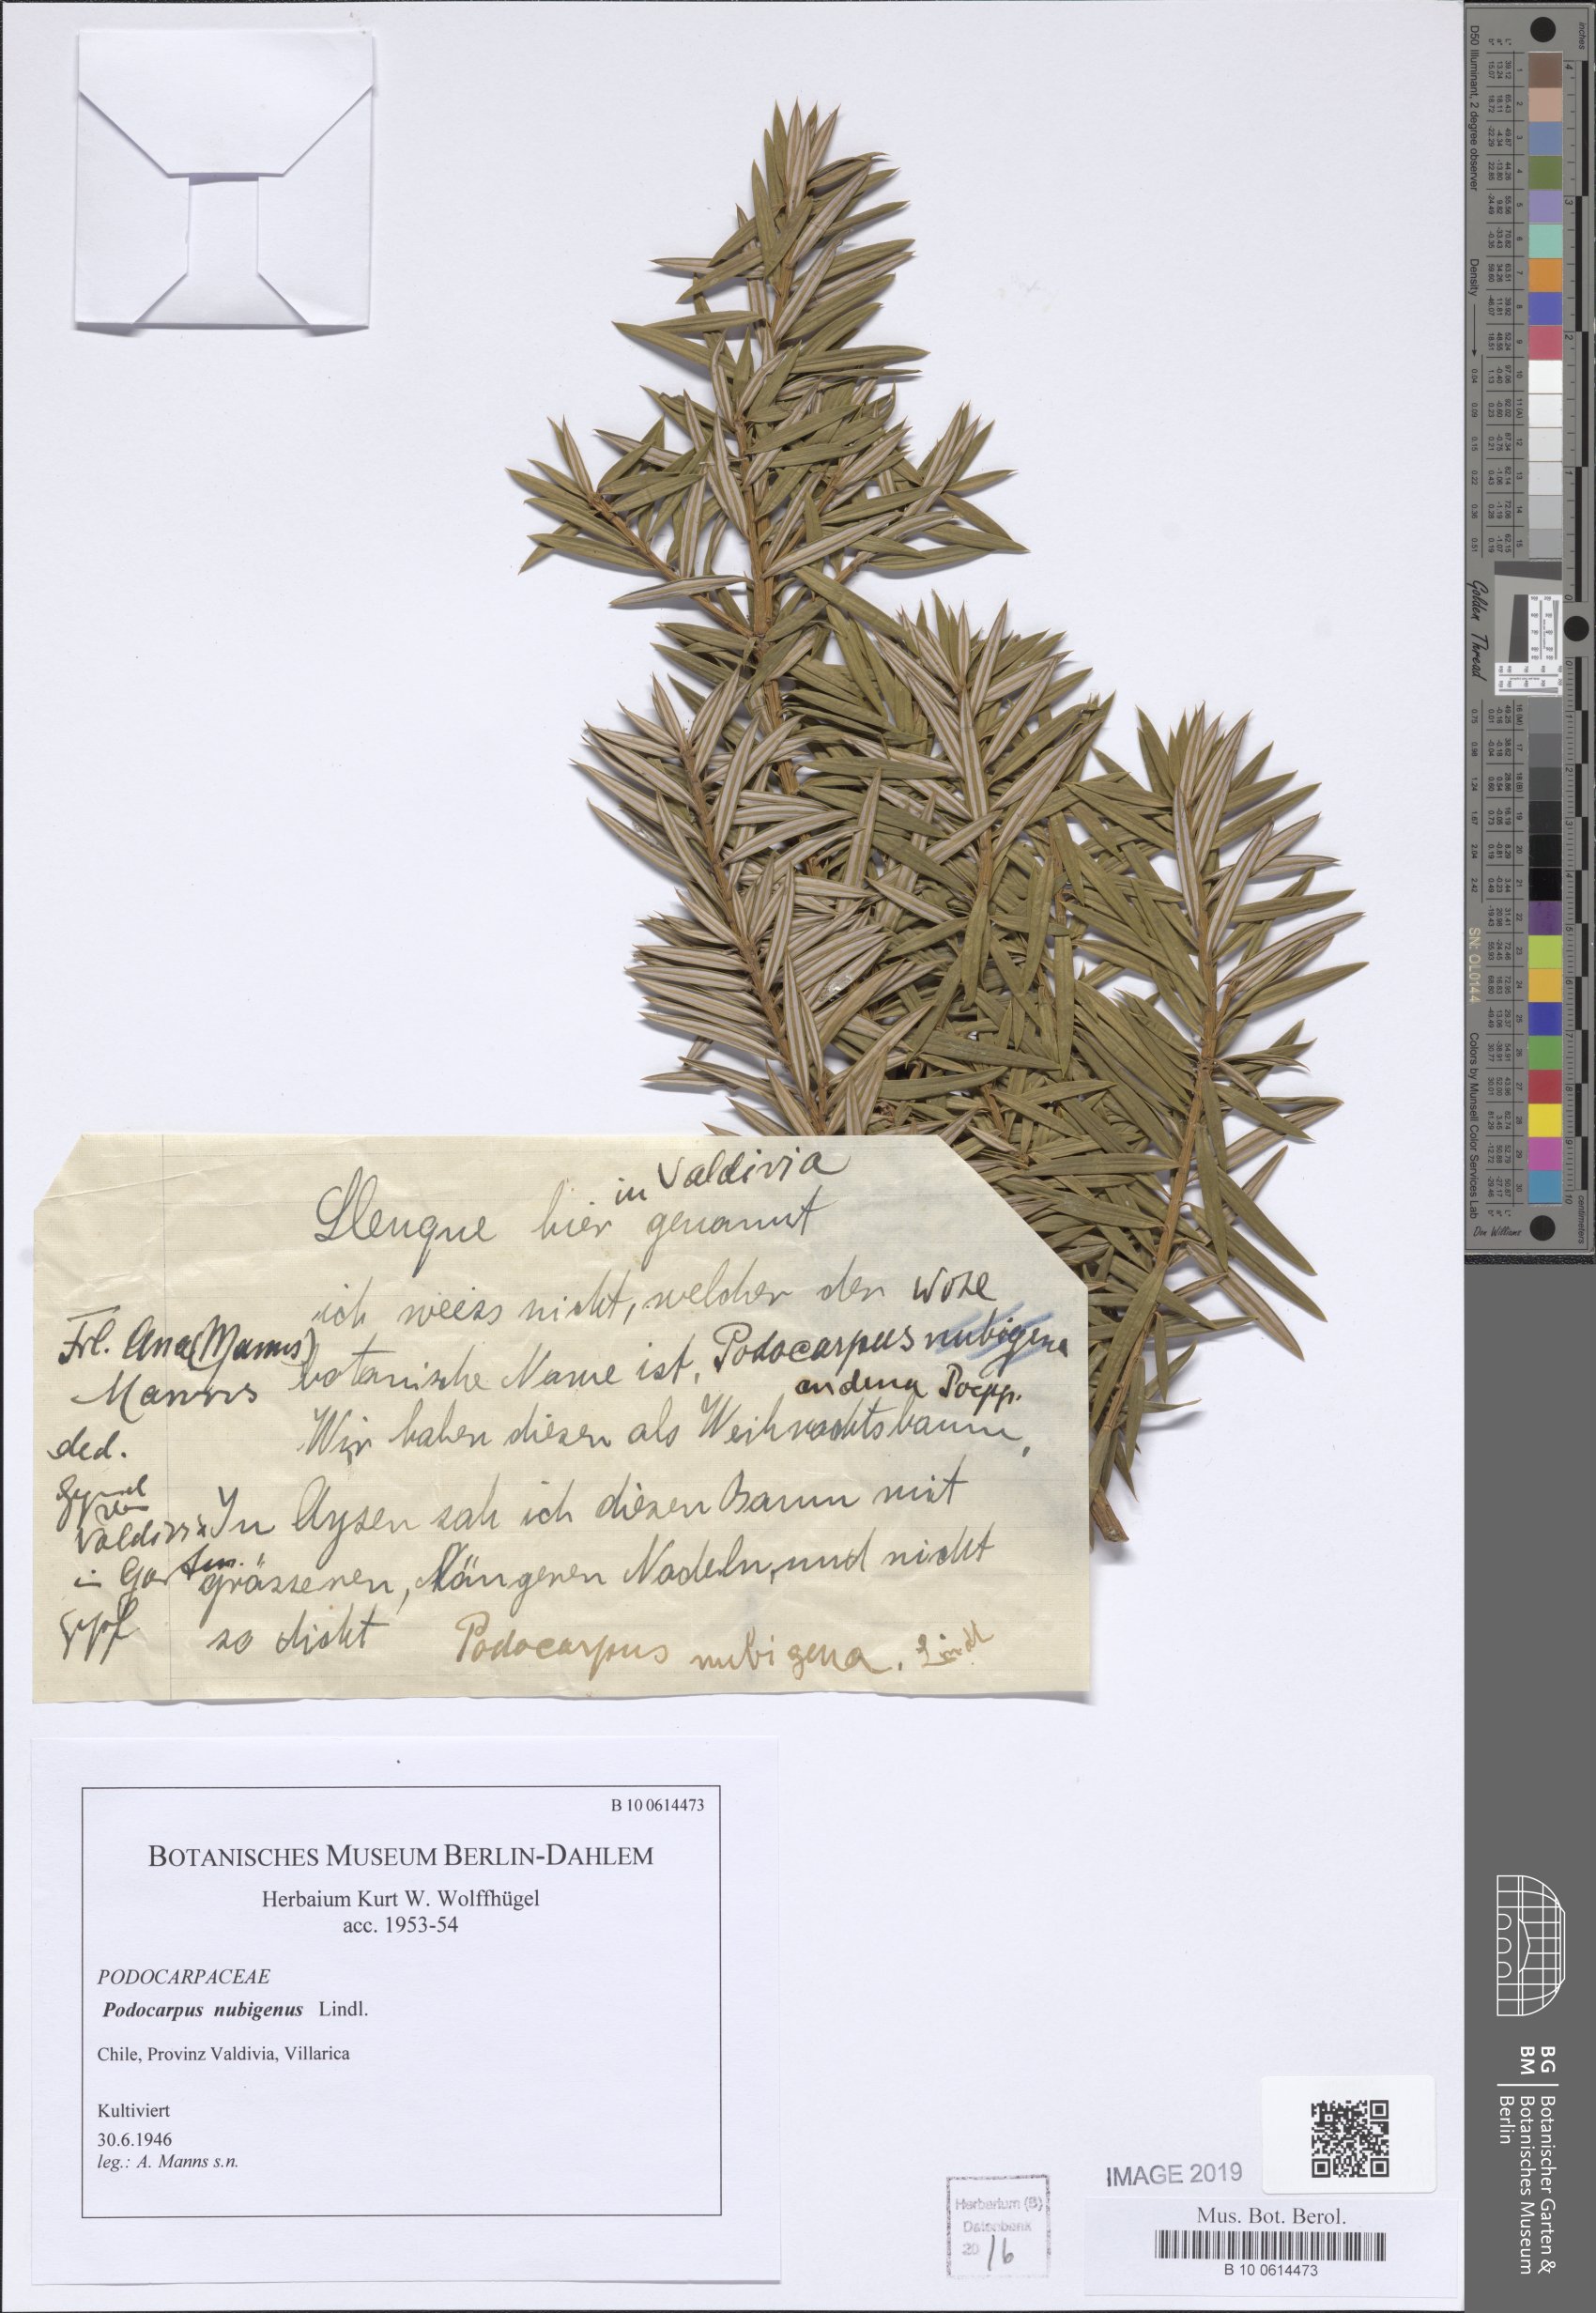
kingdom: Plantae
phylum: Tracheophyta
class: Pinopsida
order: Pinales
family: Podocarpaceae
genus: Podocarpus
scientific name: Podocarpus nubigenus
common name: Cloud podocarp
